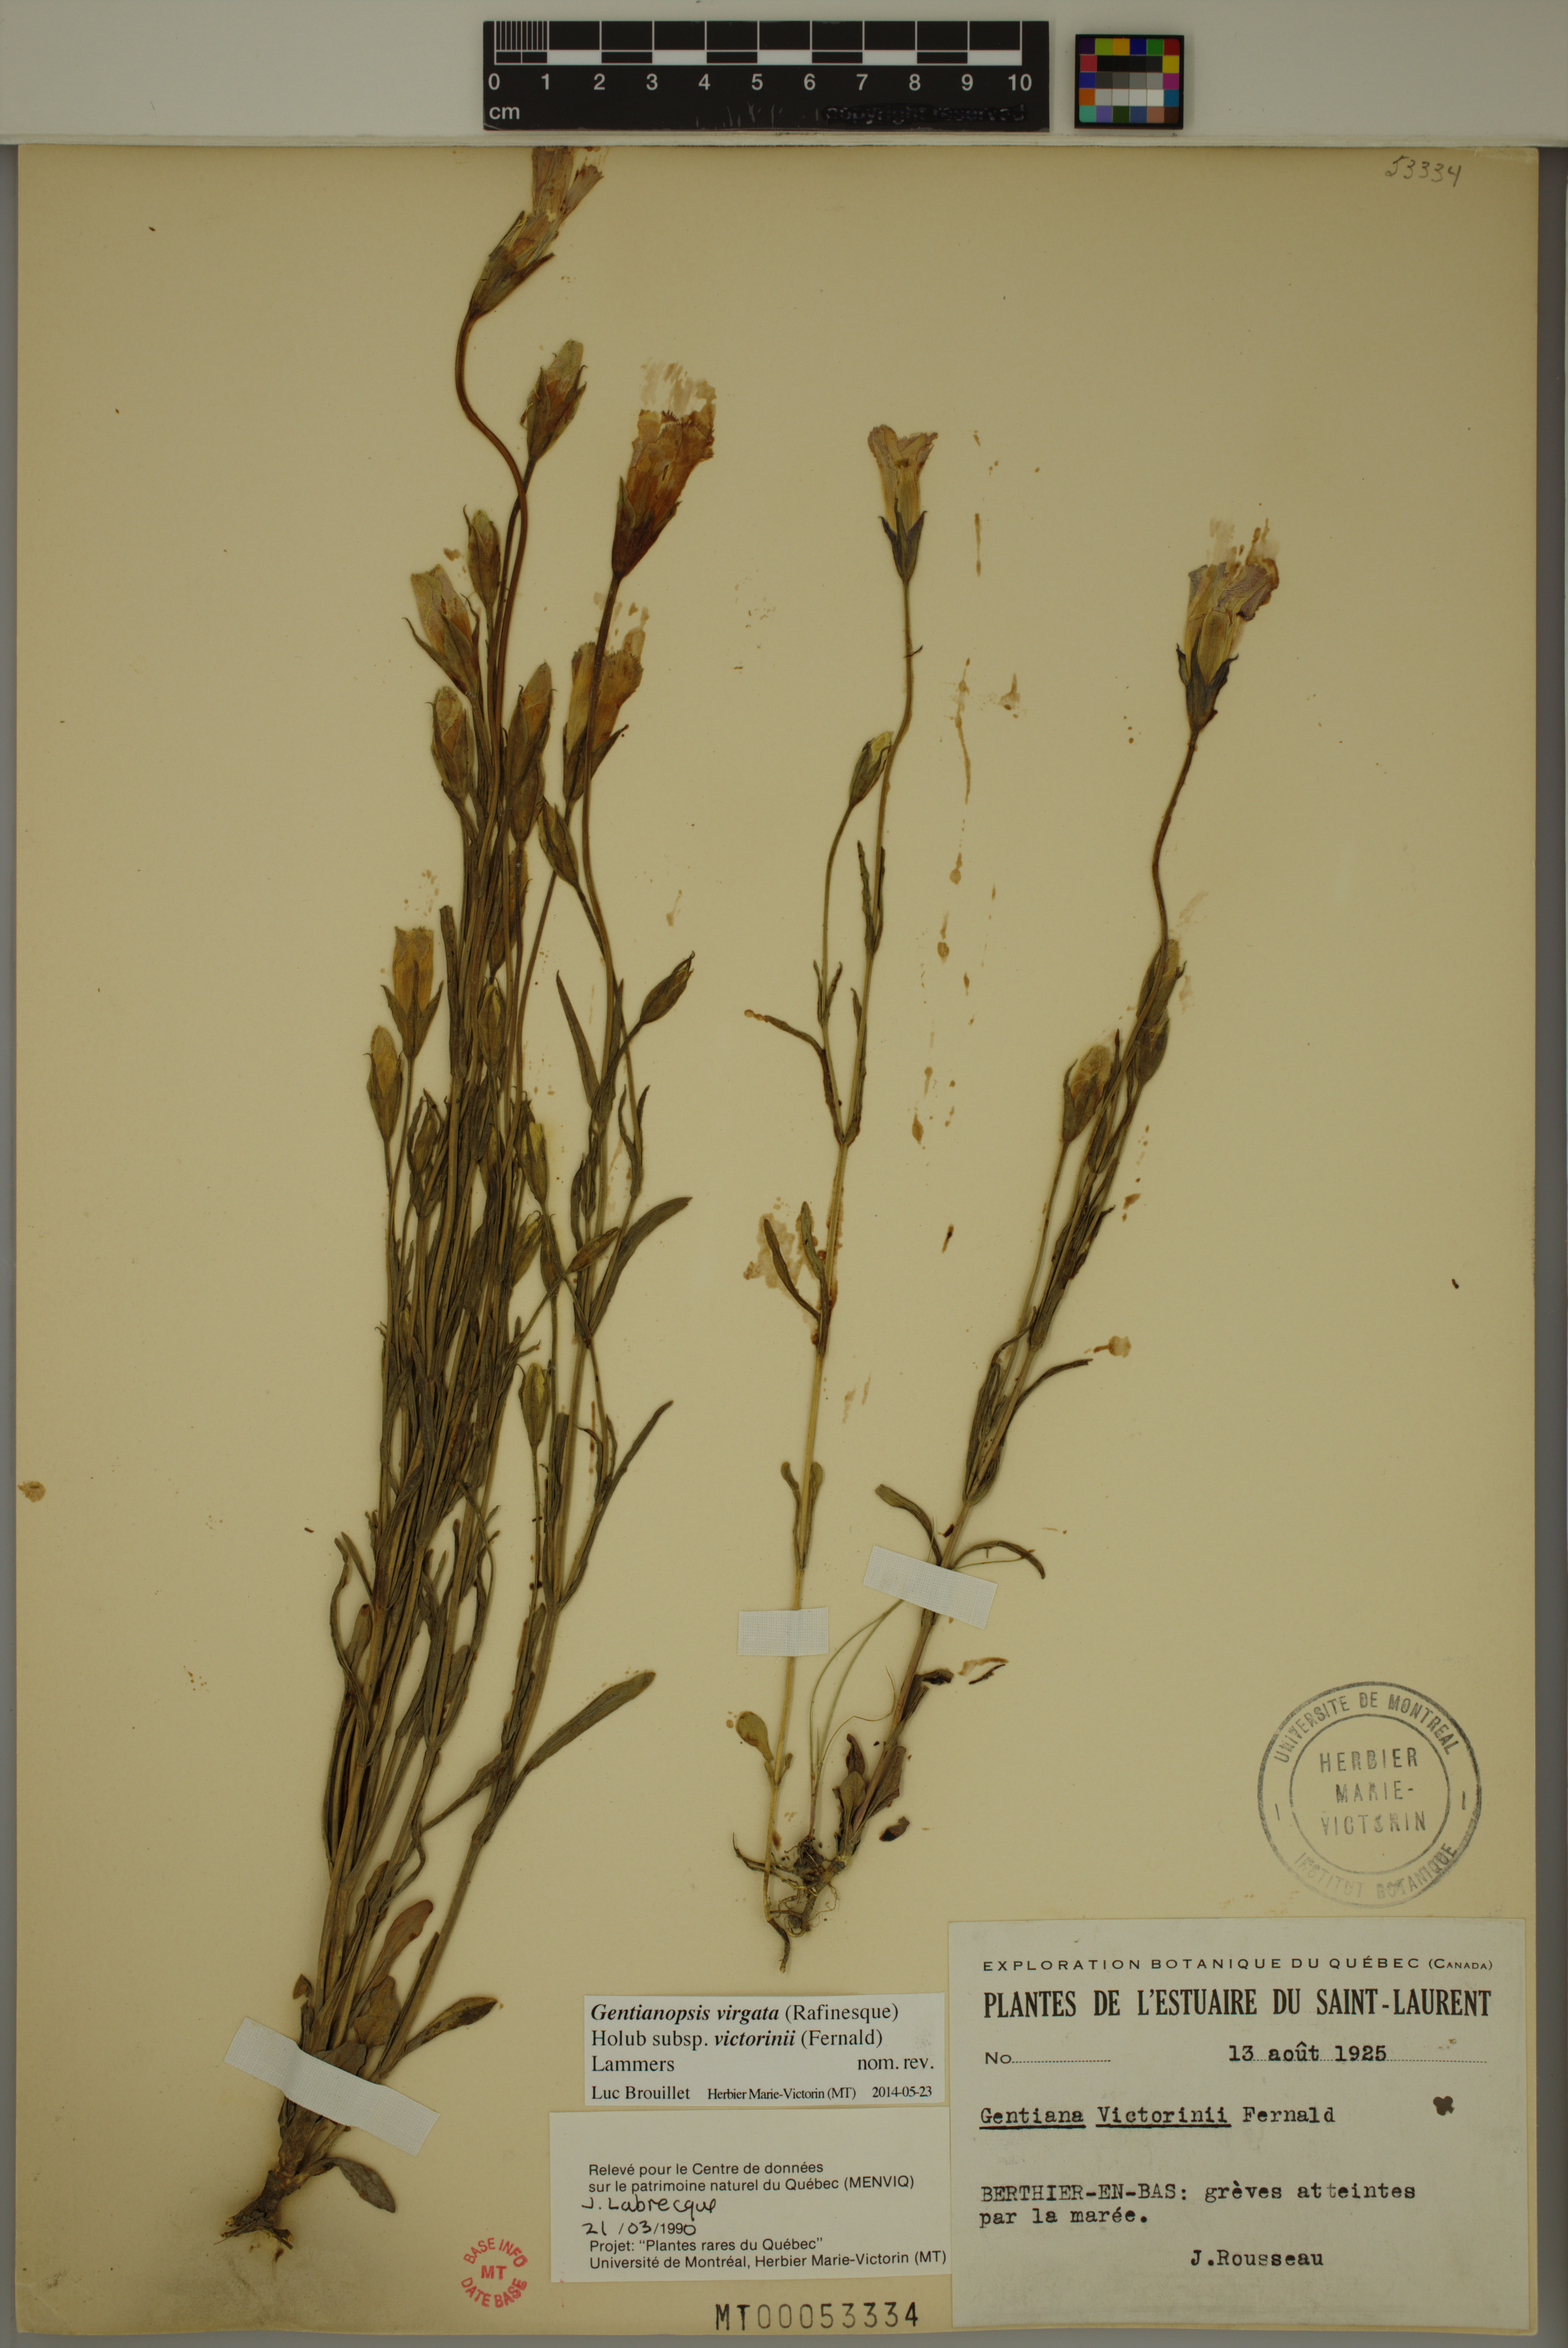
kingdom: Plantae
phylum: Tracheophyta
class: Magnoliopsida
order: Gentianales
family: Gentianaceae
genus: Gentianopsis
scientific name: Gentianopsis victorinii
